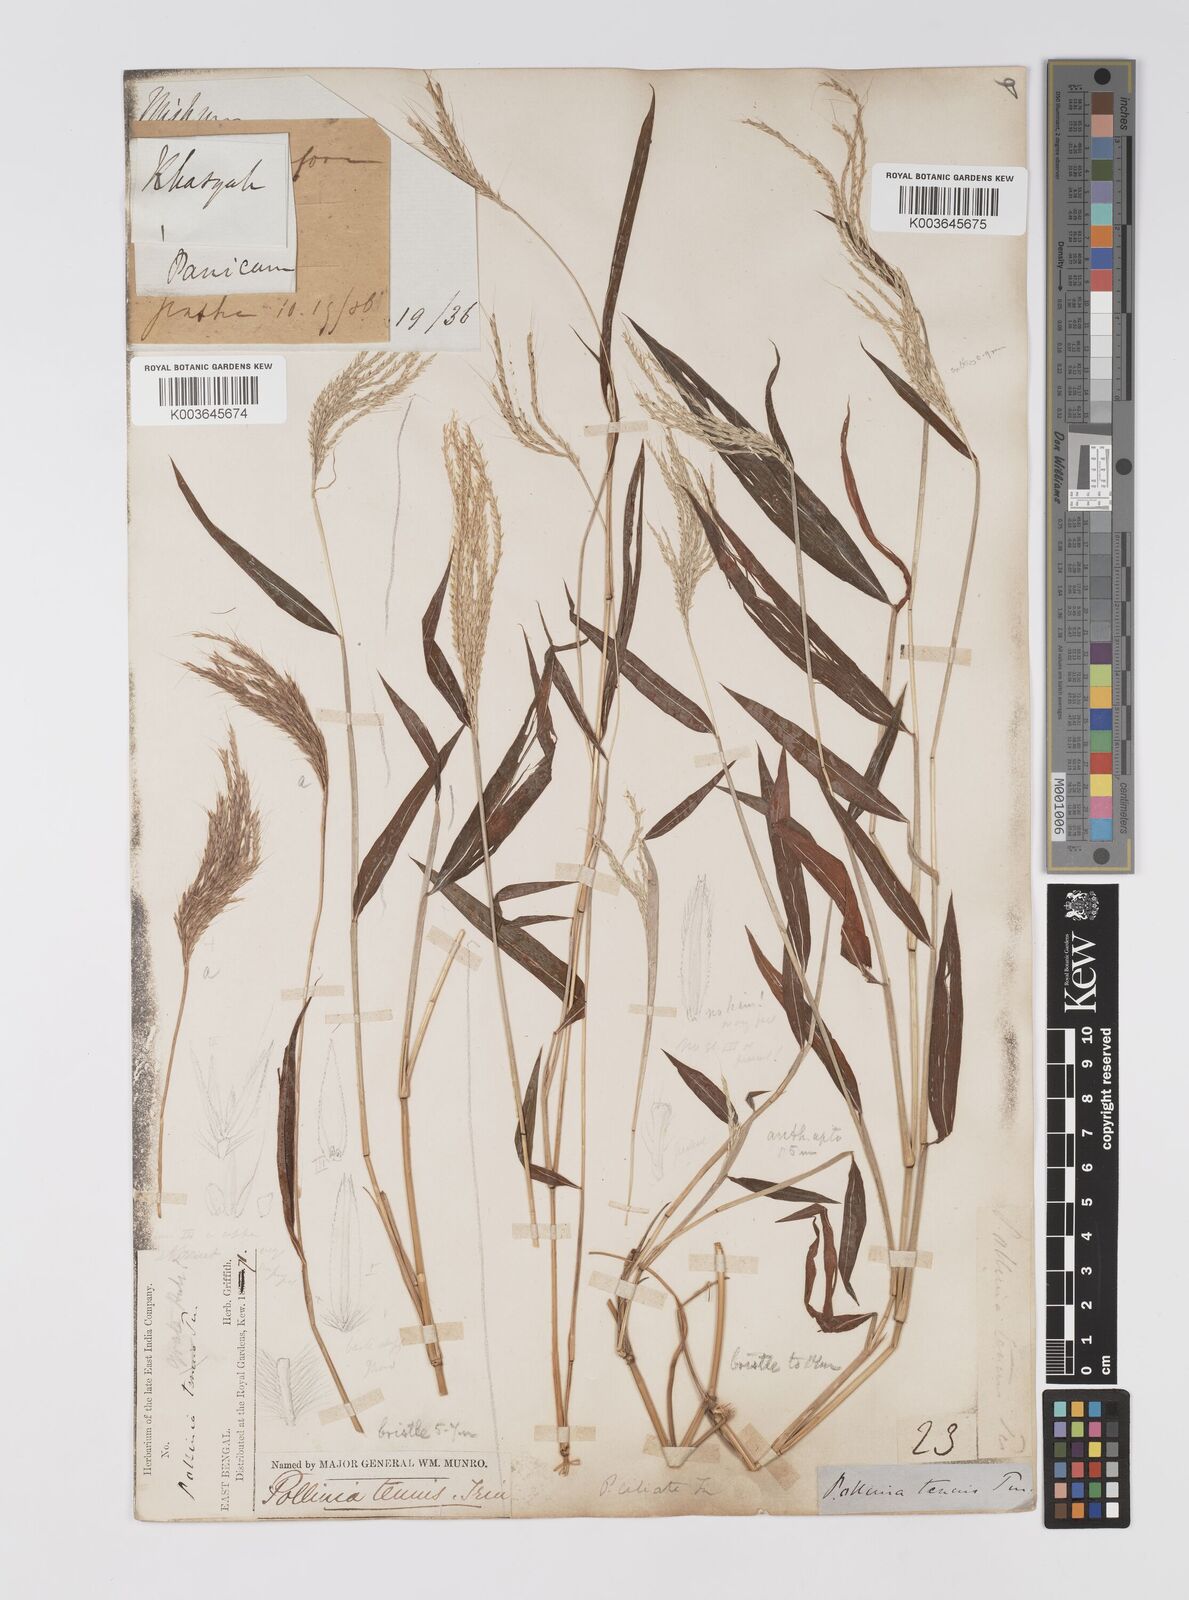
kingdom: Plantae
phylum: Tracheophyta
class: Liliopsida
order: Poales
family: Poaceae
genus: Microstegium
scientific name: Microstegium fasciculatum
